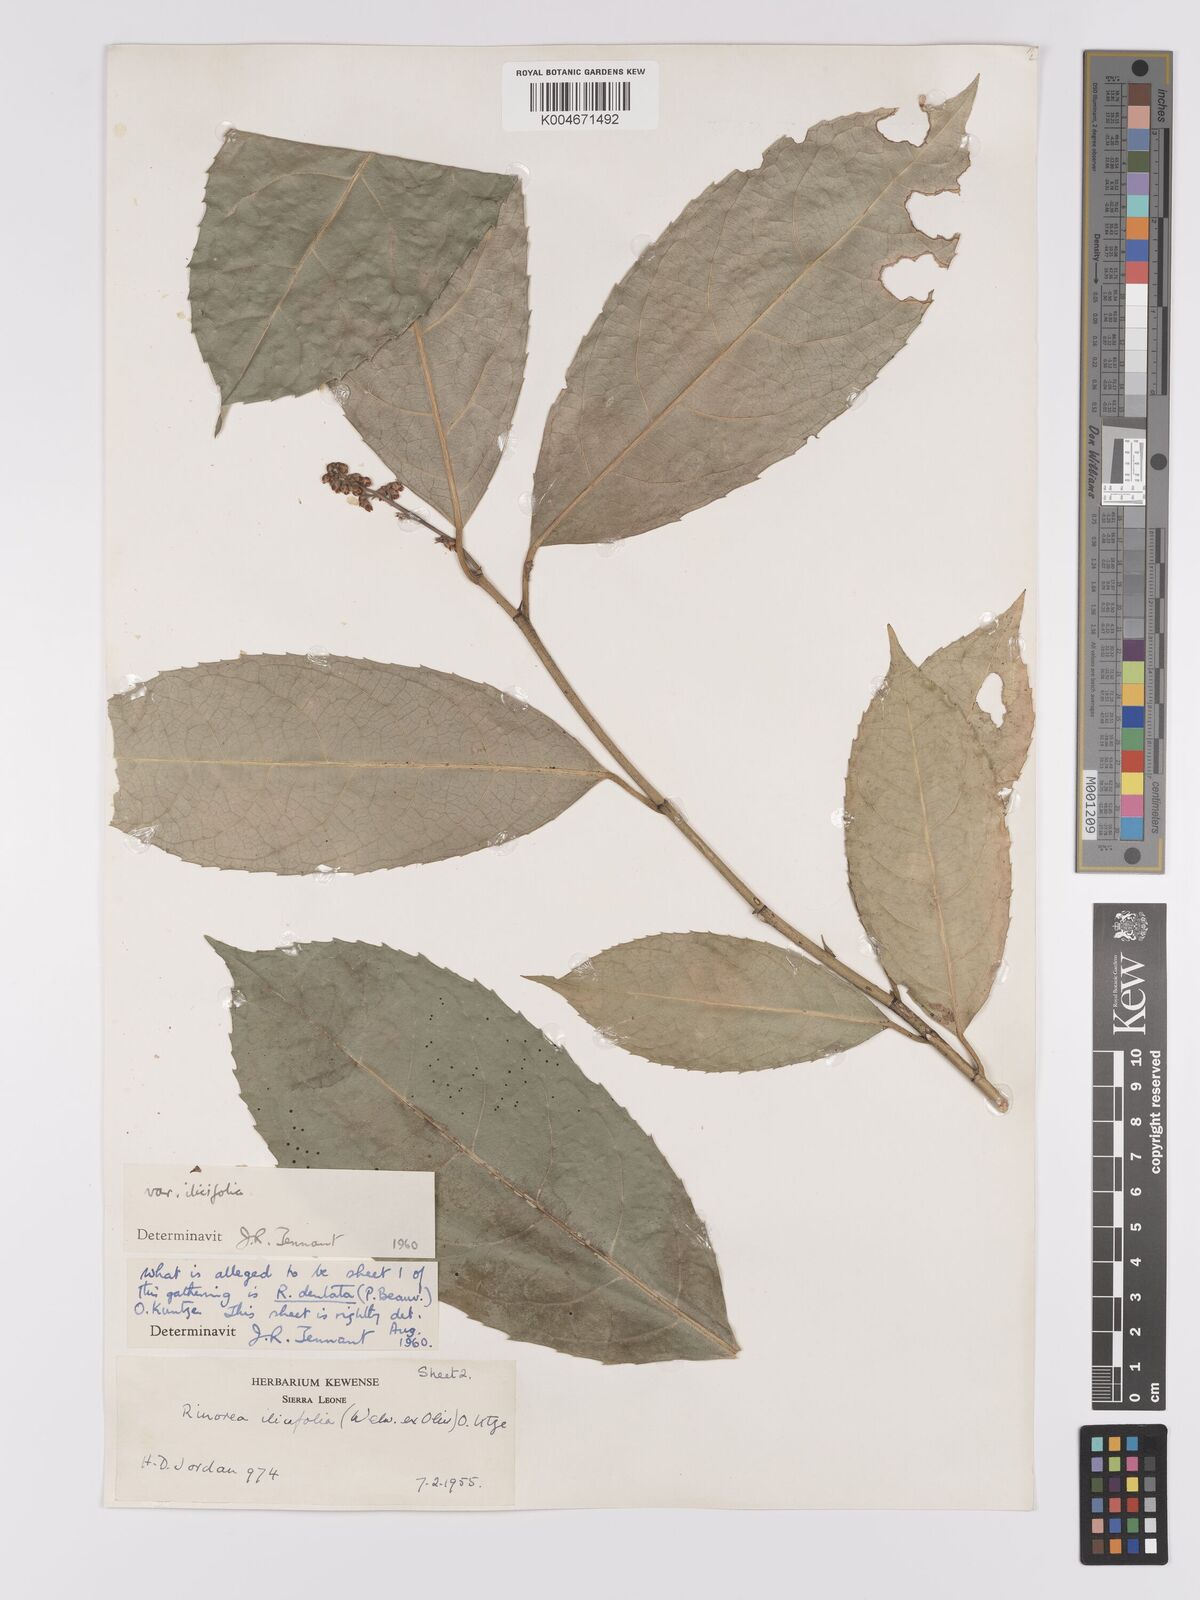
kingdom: Plantae
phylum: Tracheophyta
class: Magnoliopsida
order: Malpighiales
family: Violaceae
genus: Rinorea
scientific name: Rinorea ilicifolia
